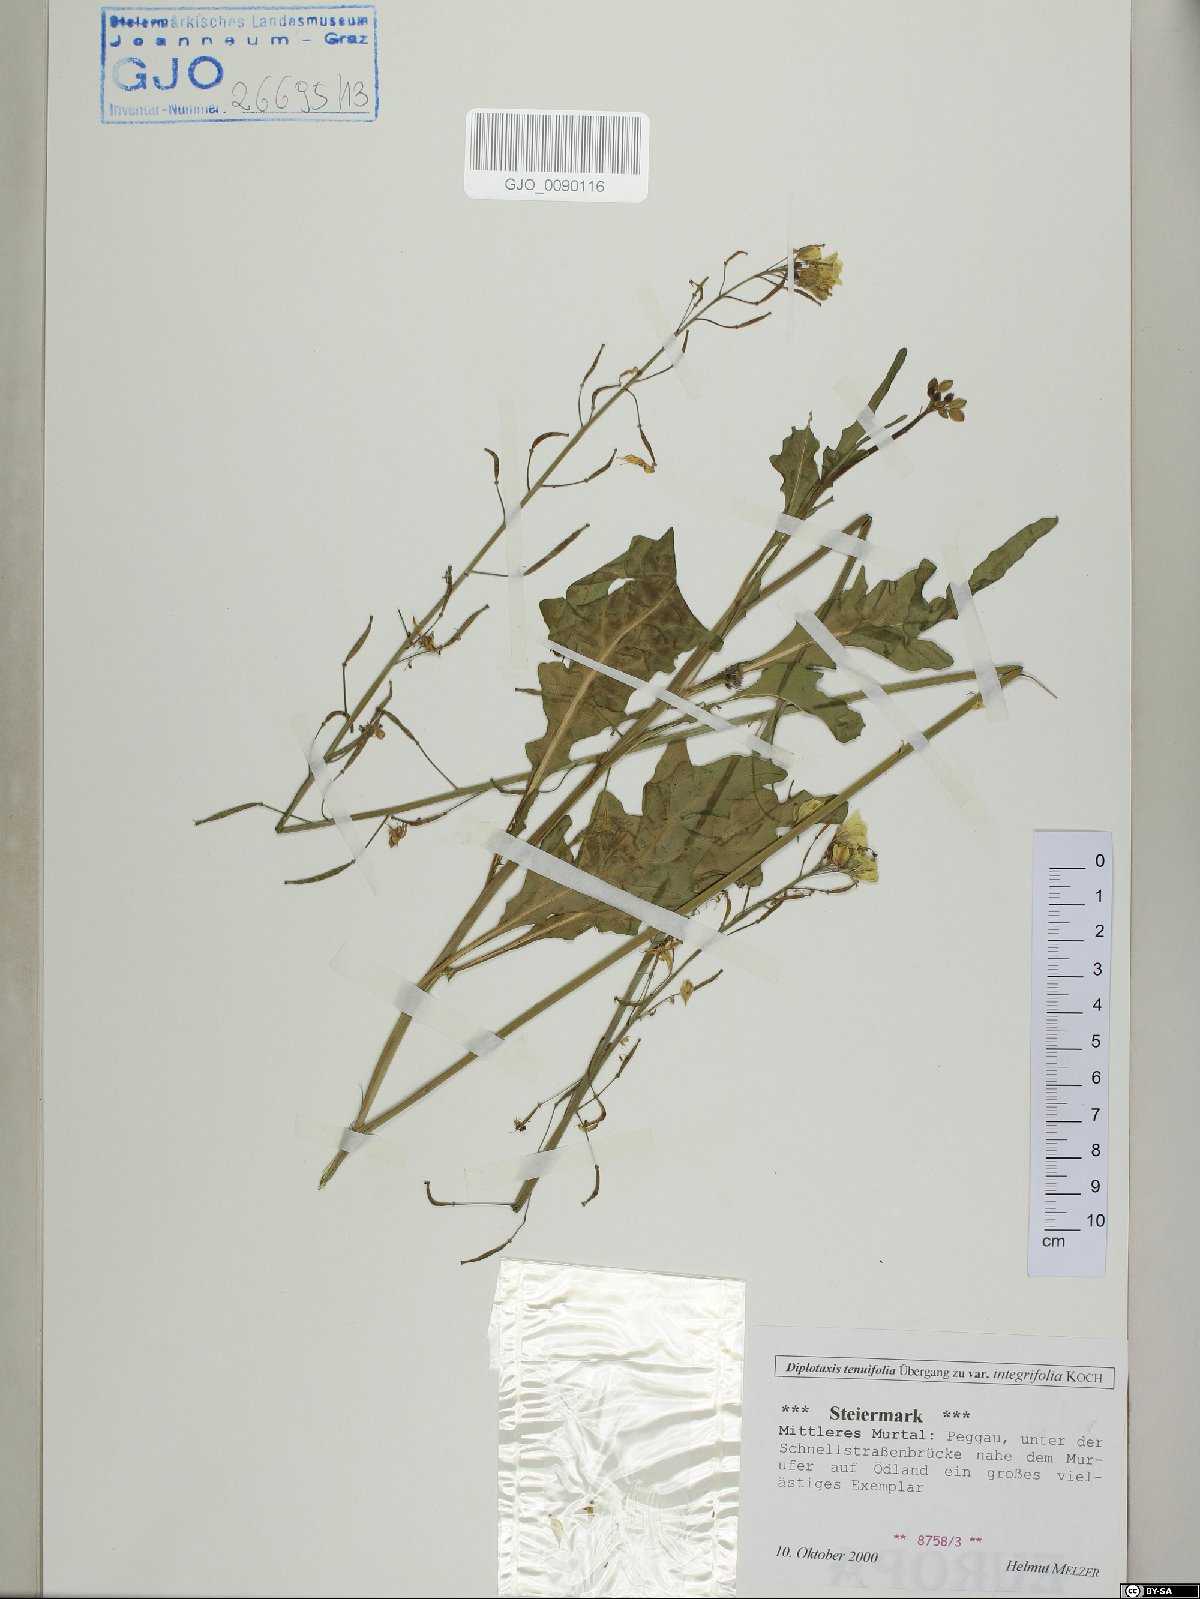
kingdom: Plantae
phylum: Tracheophyta
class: Magnoliopsida
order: Brassicales
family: Brassicaceae
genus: Diplotaxis
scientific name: Diplotaxis tenuifolia
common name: Perennial wall-rocket
